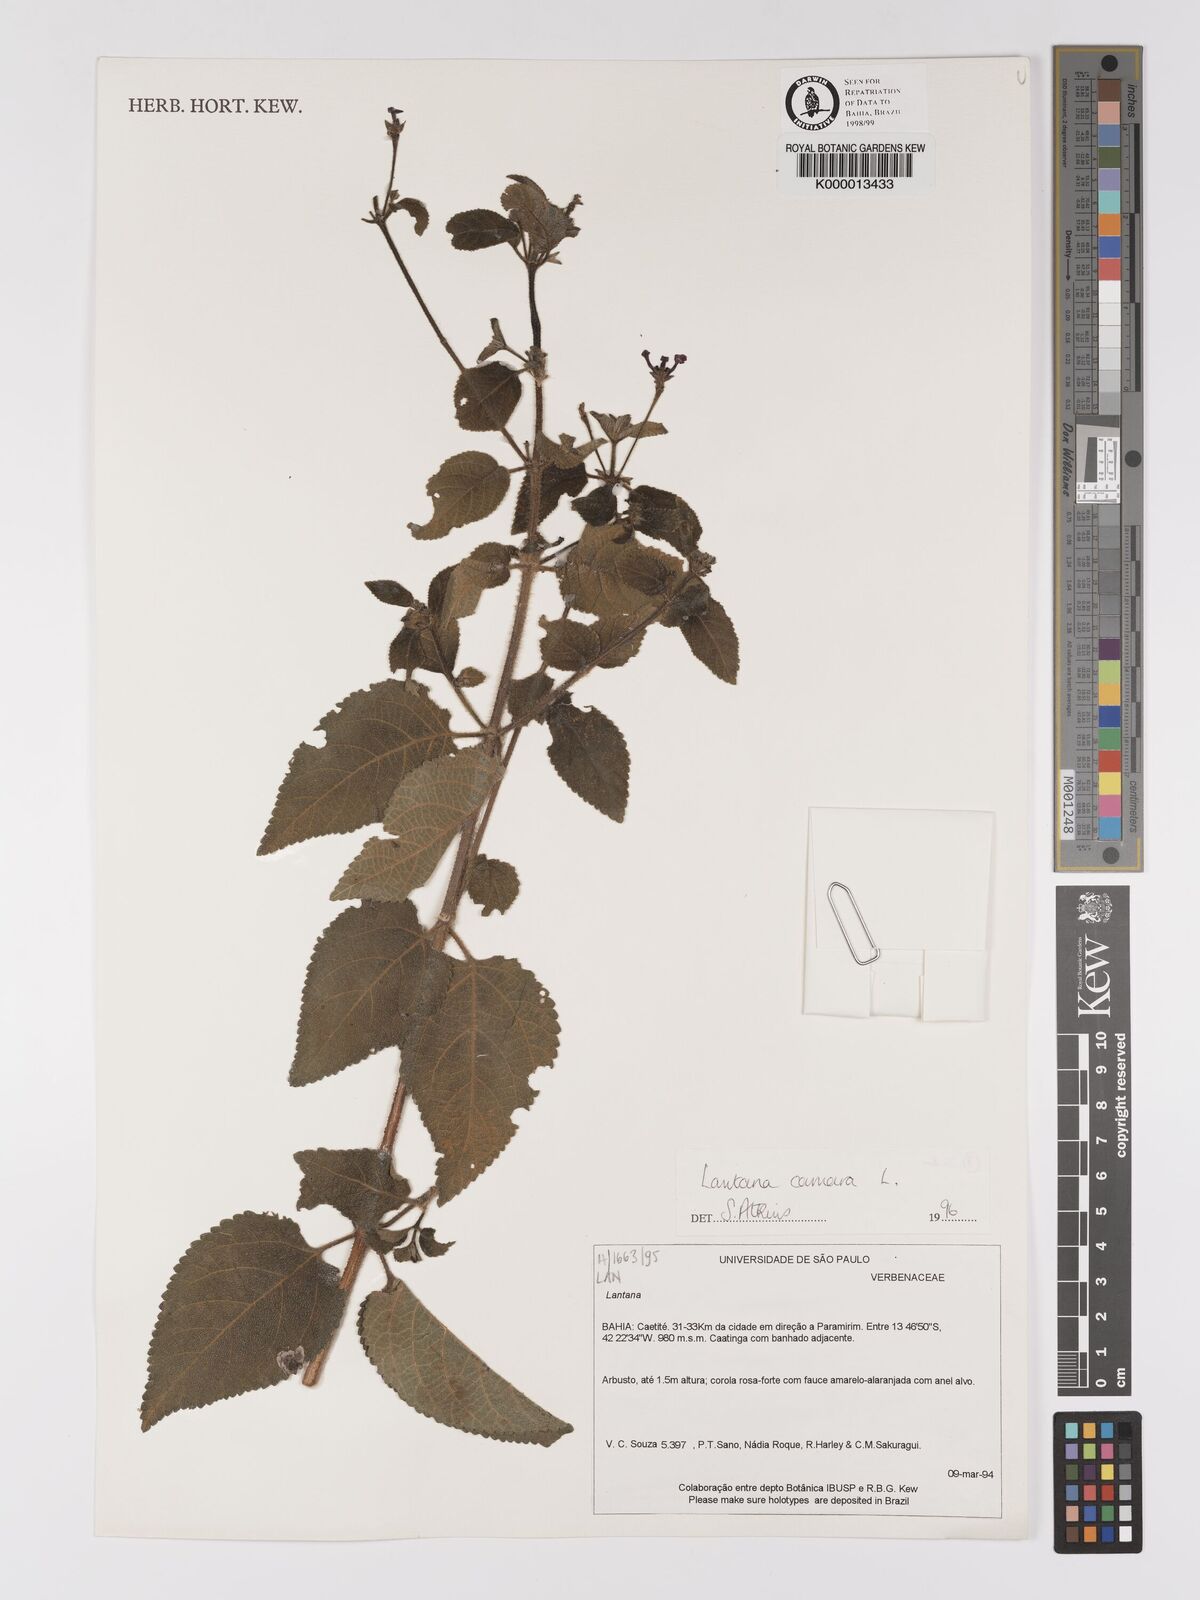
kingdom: Plantae
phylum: Tracheophyta
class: Magnoliopsida
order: Lamiales
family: Verbenaceae
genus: Lantana
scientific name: Lantana camara
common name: Lantana
